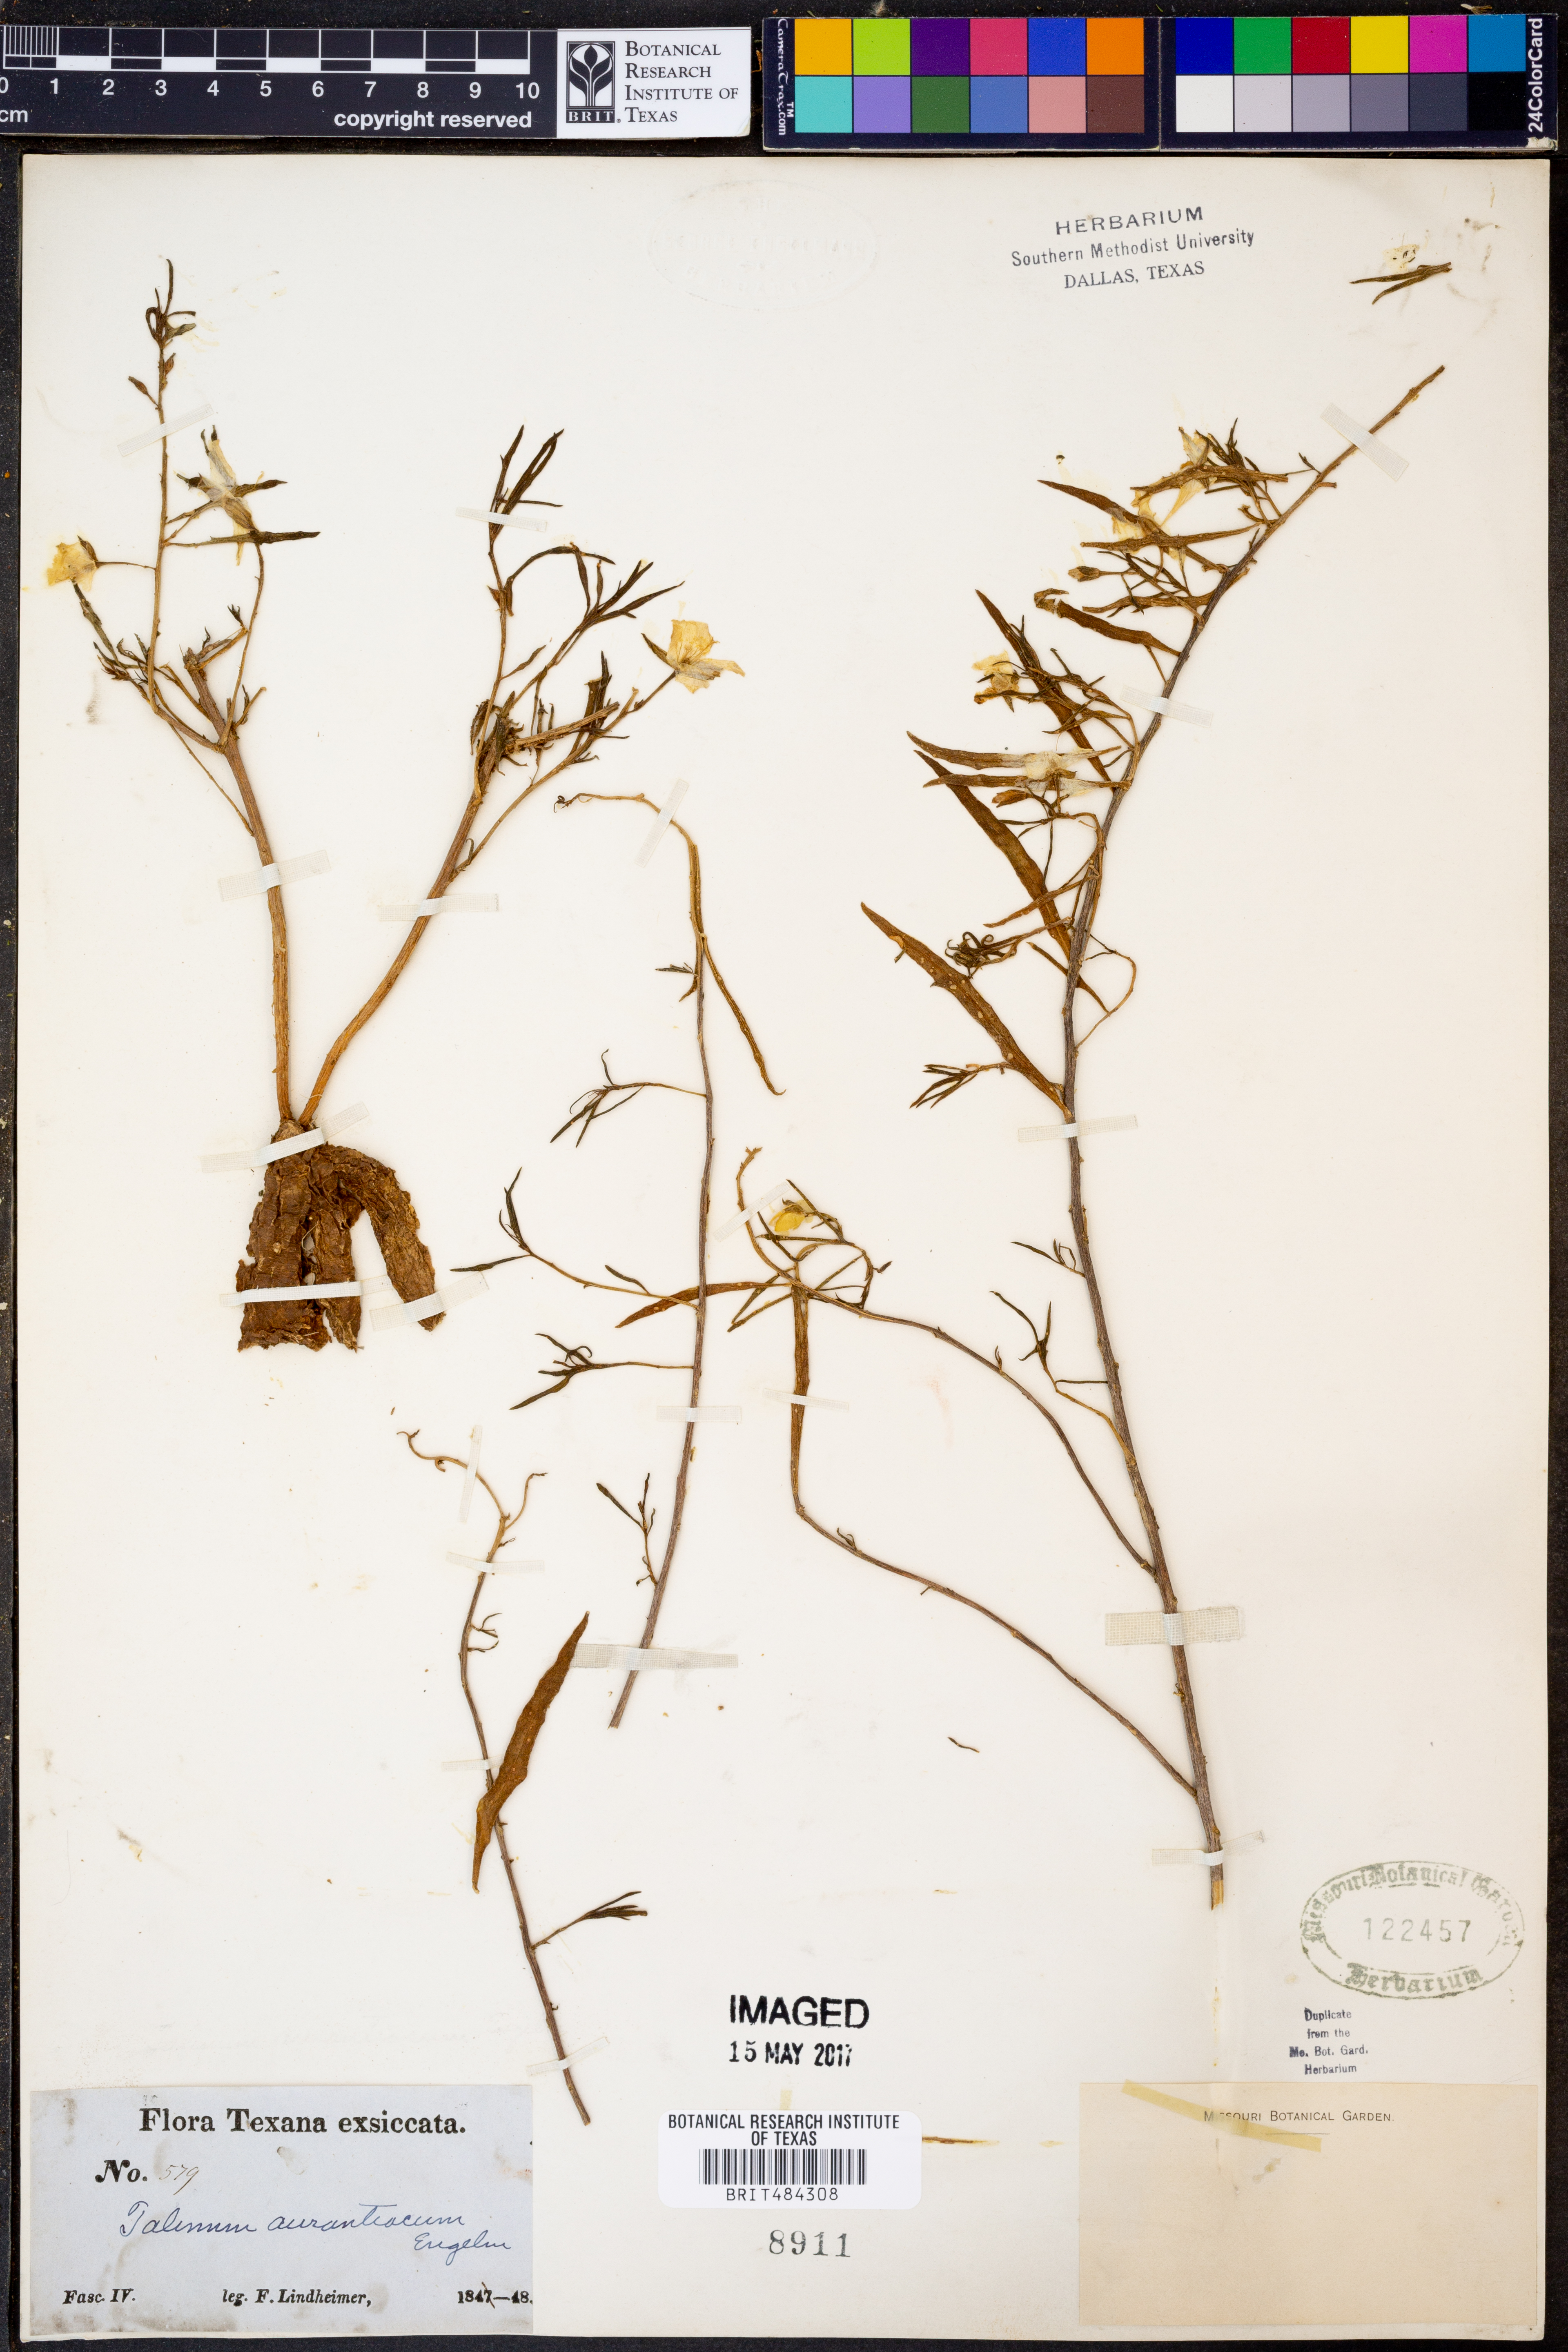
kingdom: Plantae
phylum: Tracheophyta
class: Magnoliopsida
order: Caryophyllales
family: Montiaceae
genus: Phemeranthus
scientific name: Phemeranthus aurantiacus
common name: Orange fameflower
